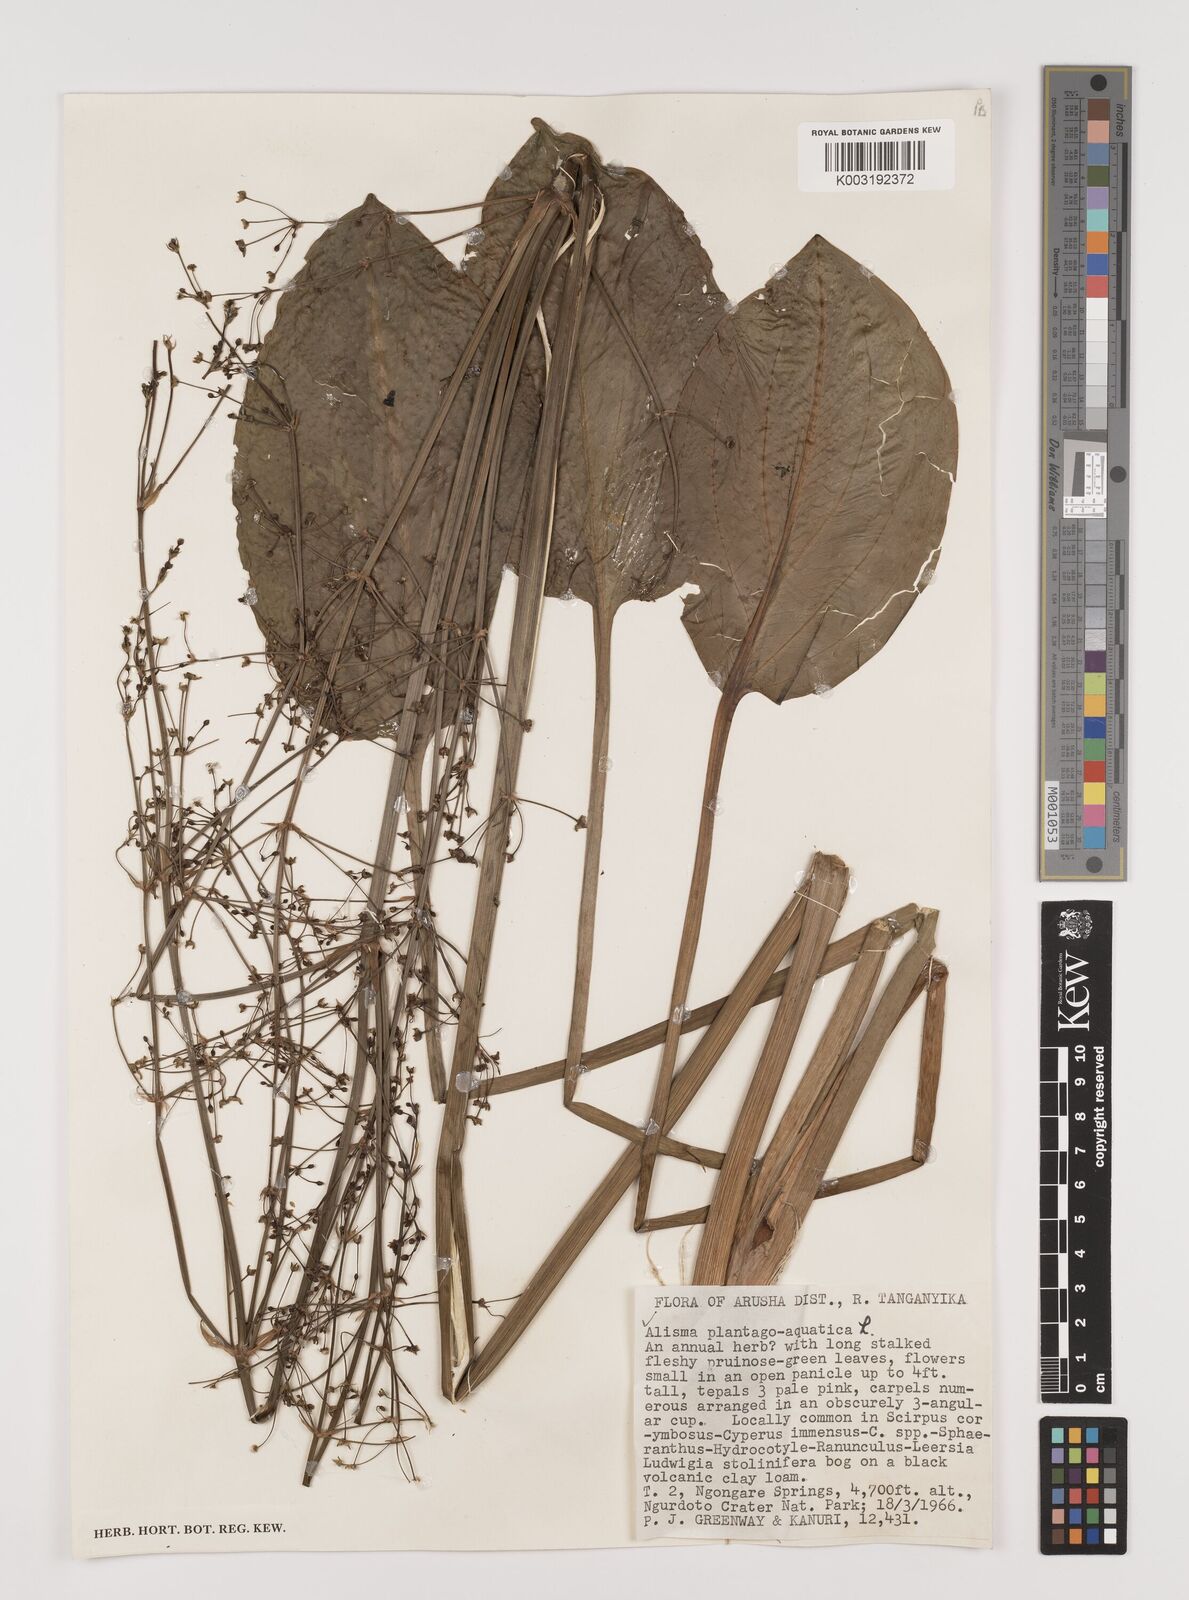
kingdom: Plantae
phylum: Tracheophyta
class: Liliopsida
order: Alismatales
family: Alismataceae
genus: Alisma
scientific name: Alisma plantago-aquatica
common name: Water-plantain
